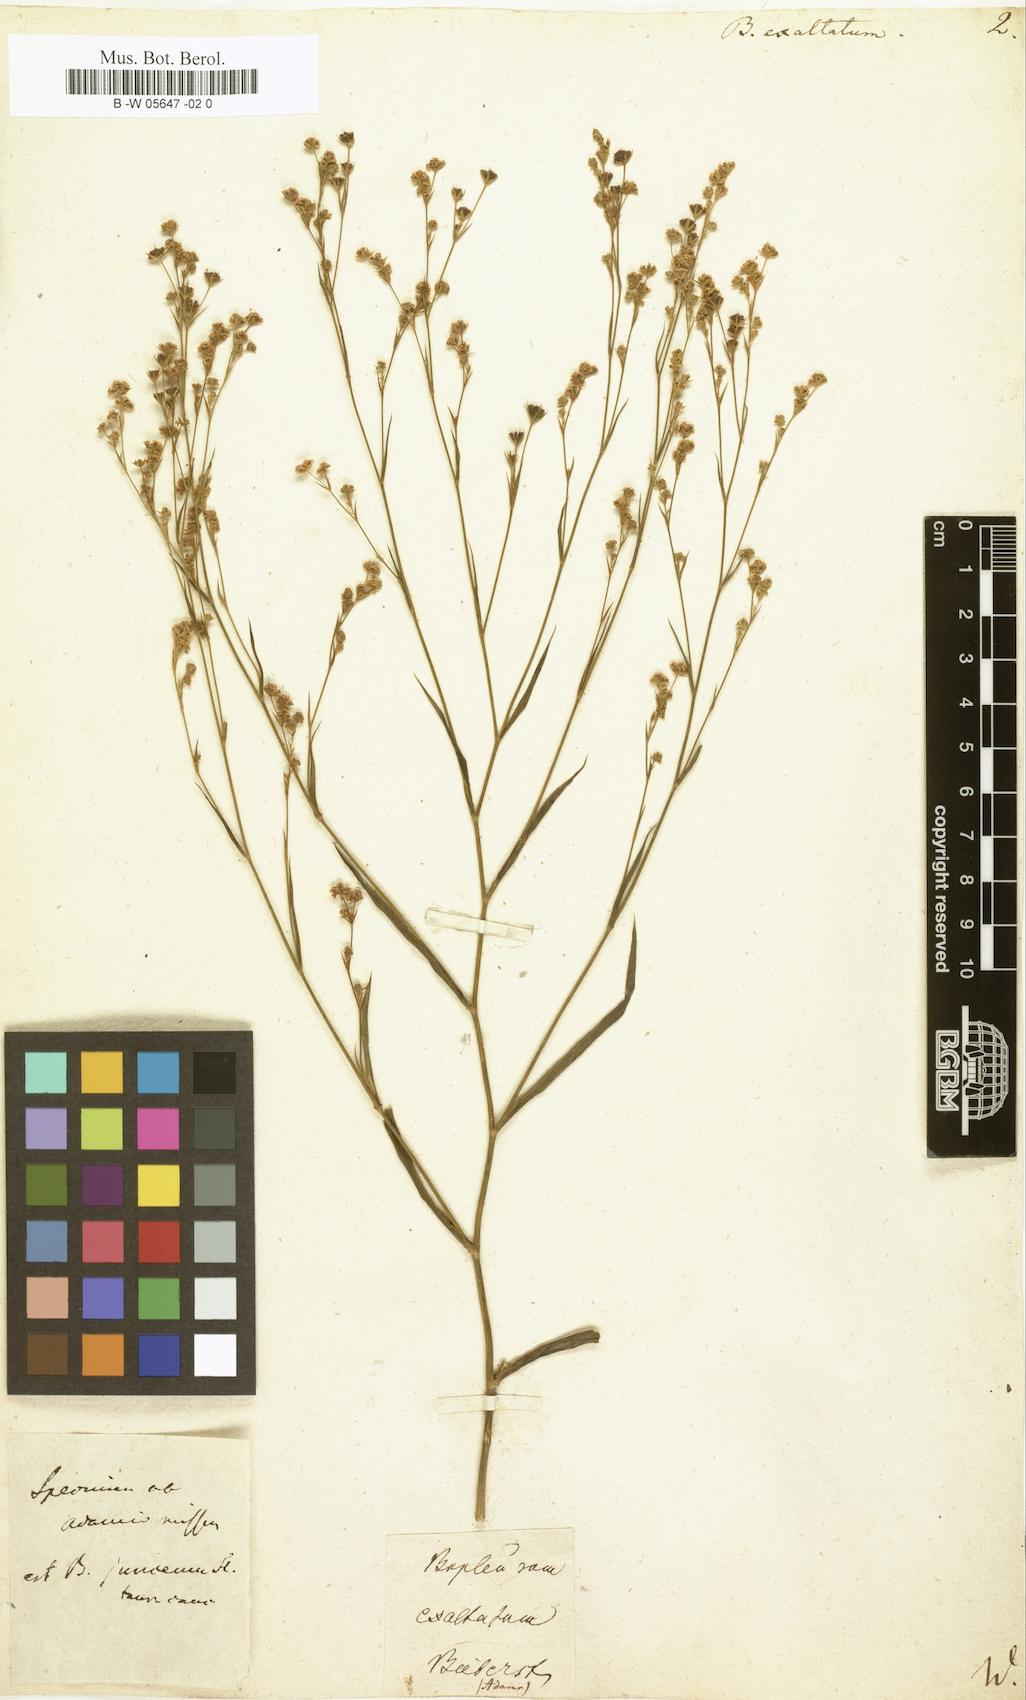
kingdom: Plantae
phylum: Tracheophyta
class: Magnoliopsida
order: Apiales
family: Apiaceae
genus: Bupleurum
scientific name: Bupleurum exaltatum
